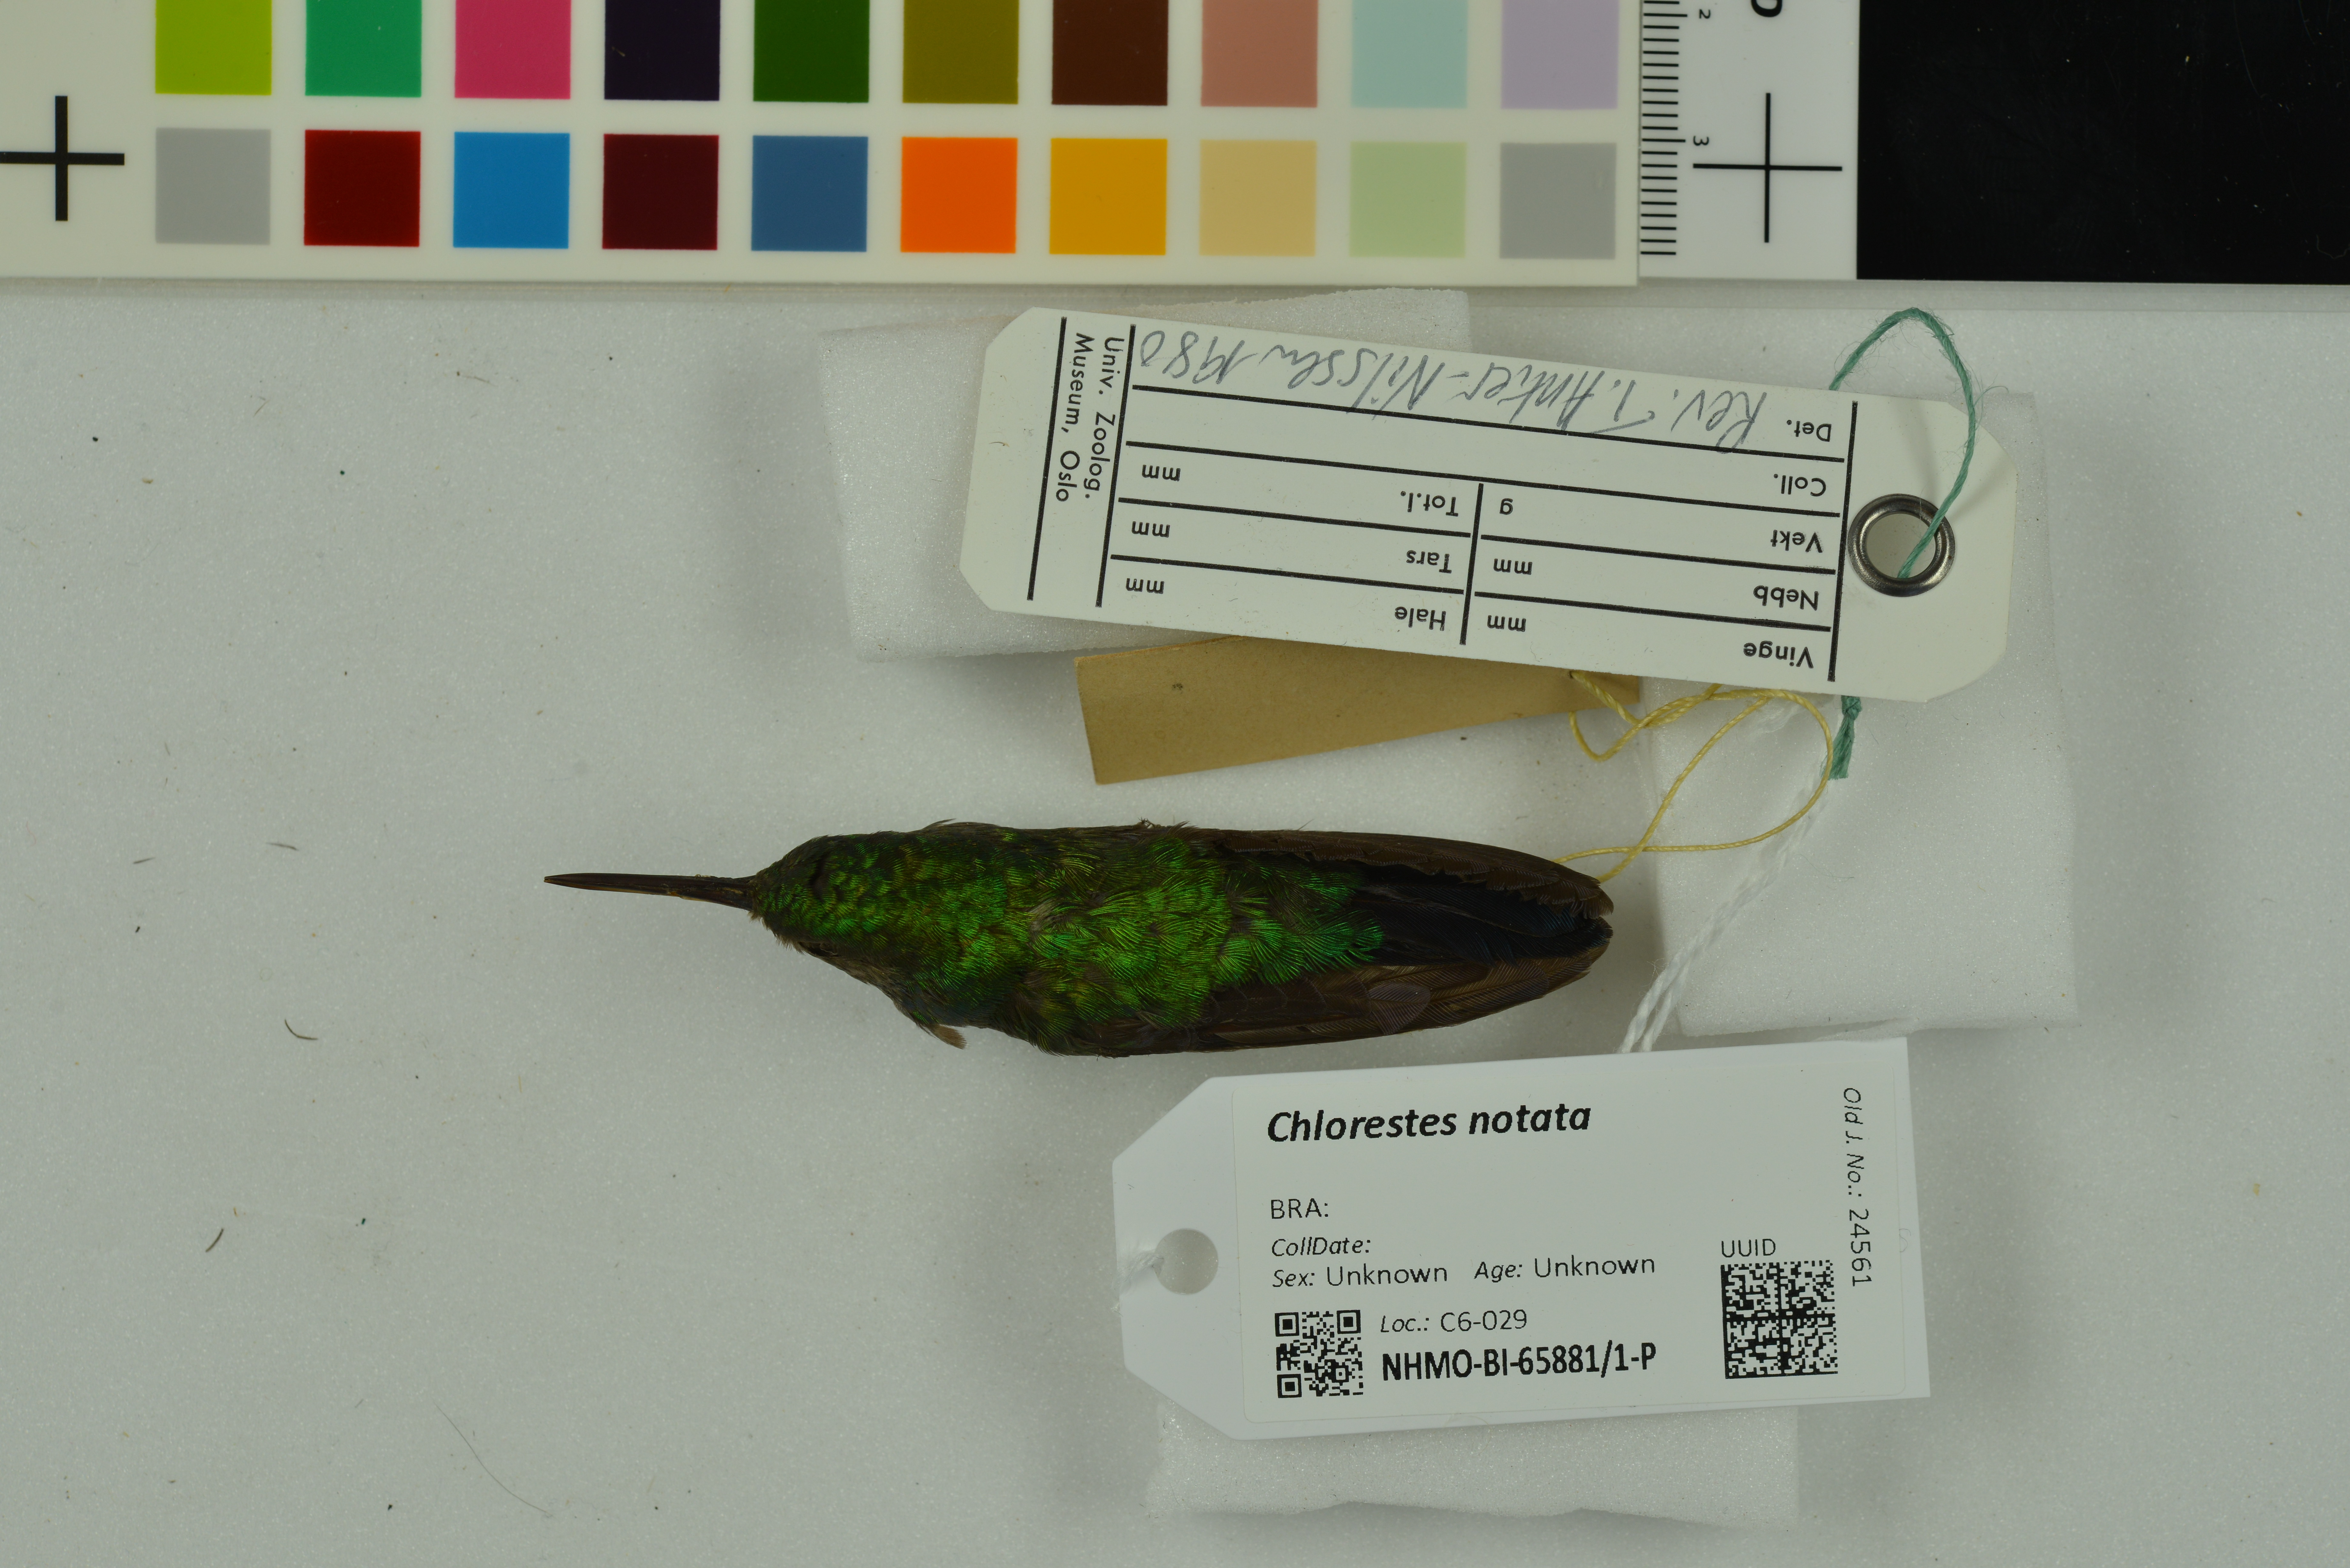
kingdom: Animalia
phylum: Chordata
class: Aves
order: Apodiformes
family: Trochilidae
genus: Chlorestes
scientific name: Chlorestes notata
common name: Blue-chinned sapphire
